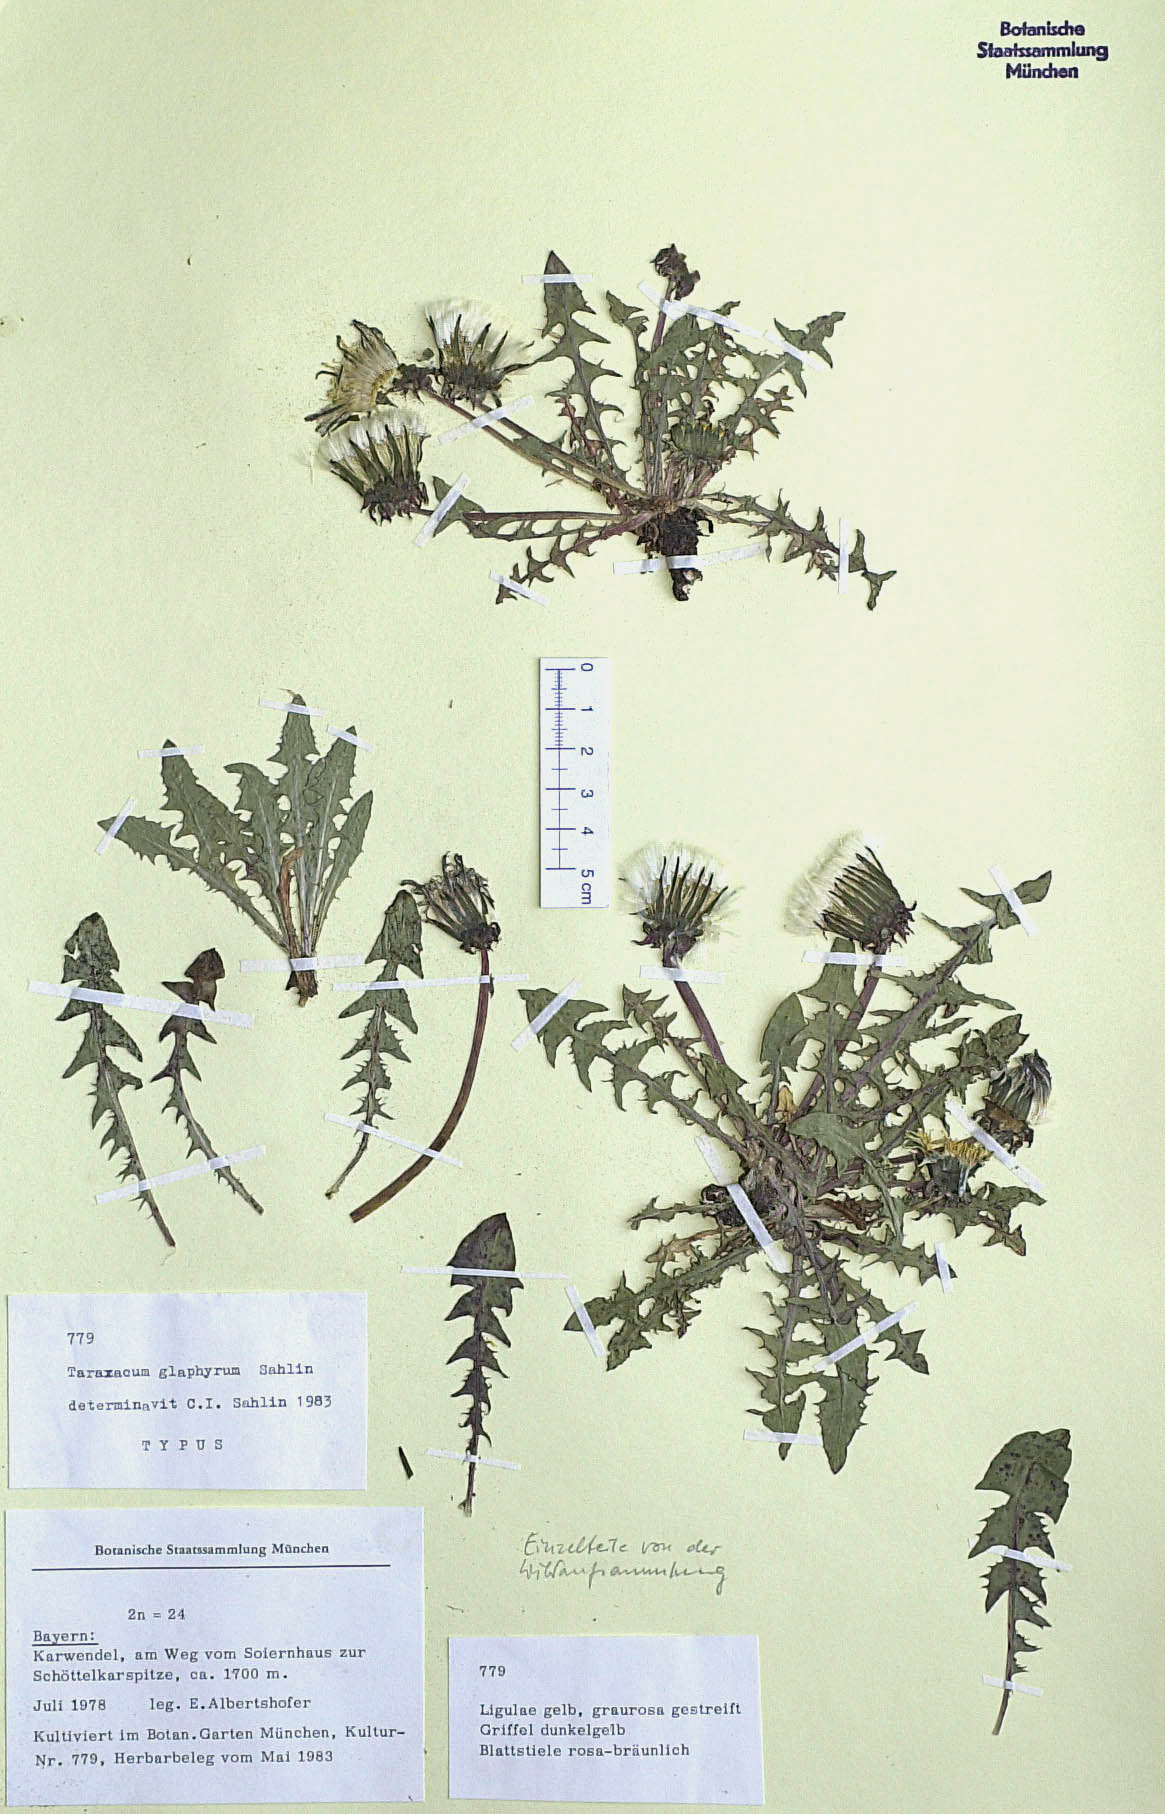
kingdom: Plantae
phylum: Tracheophyta
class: Magnoliopsida
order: Asterales
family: Asteraceae
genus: Taraxacum
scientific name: Taraxacum glaphyrum
